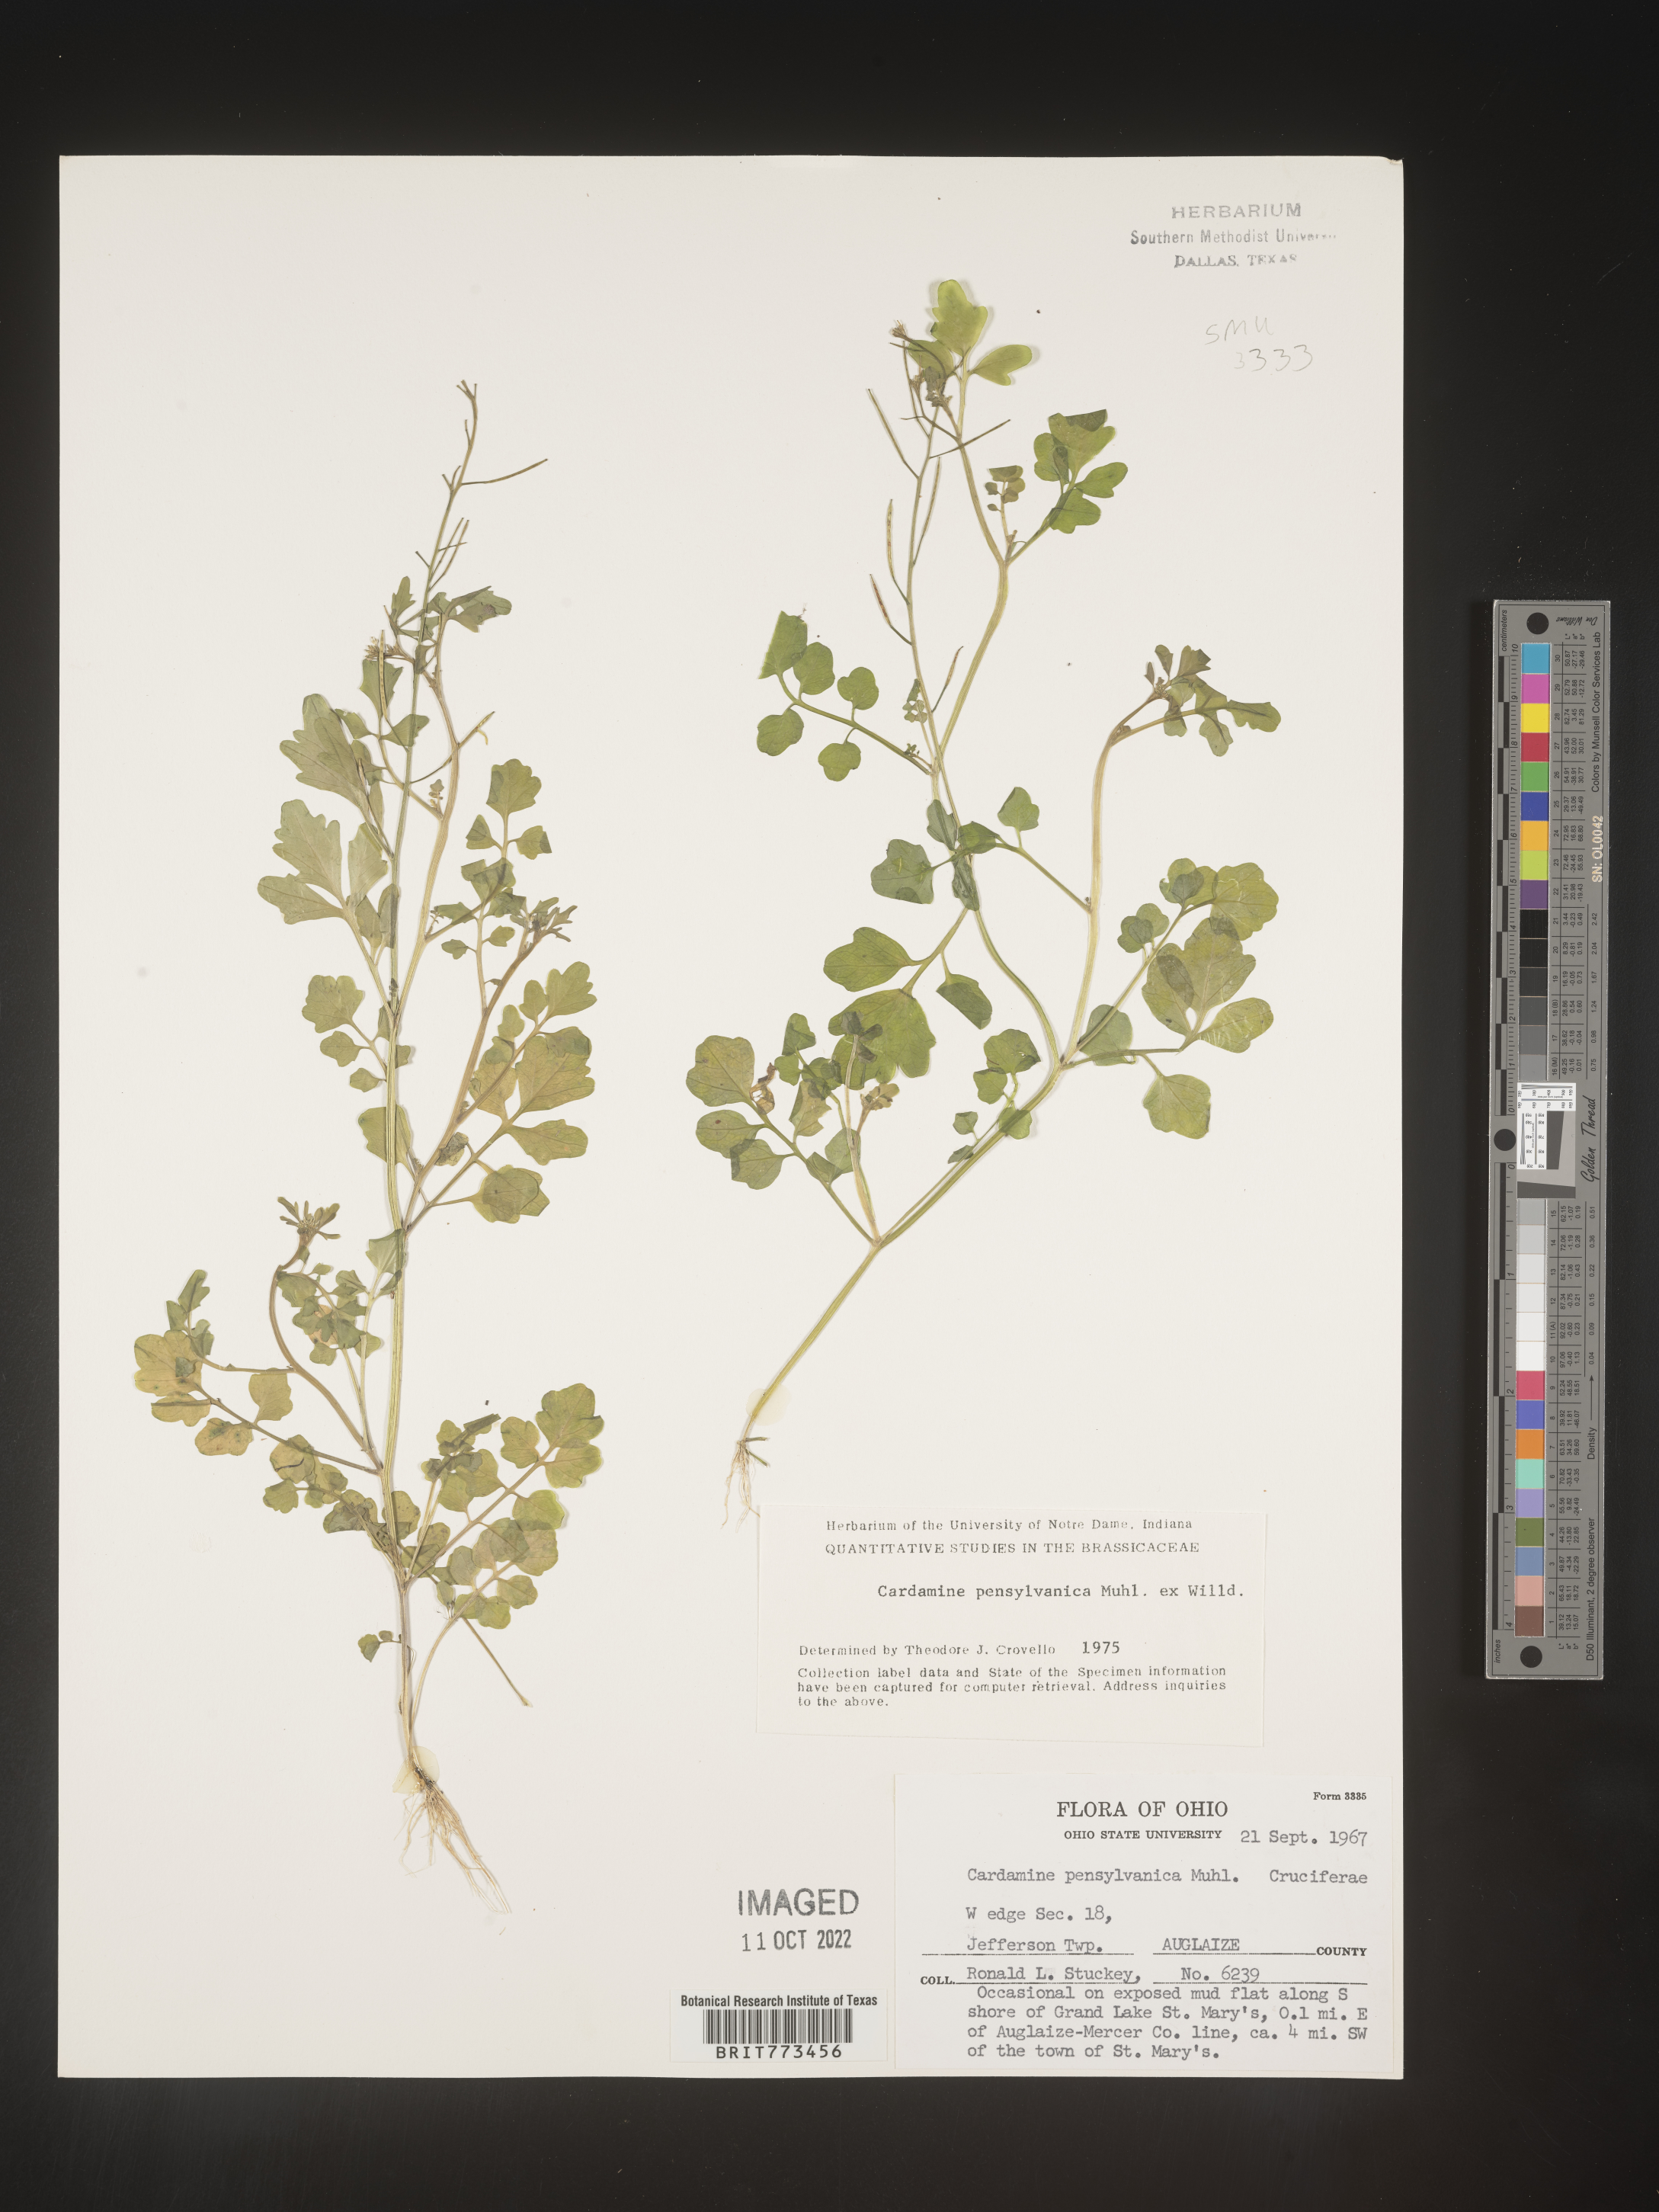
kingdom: Plantae
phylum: Tracheophyta
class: Magnoliopsida
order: Brassicales
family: Brassicaceae
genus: Cardamine
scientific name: Cardamine pensylvanica
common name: Pennsylvania bittercress
